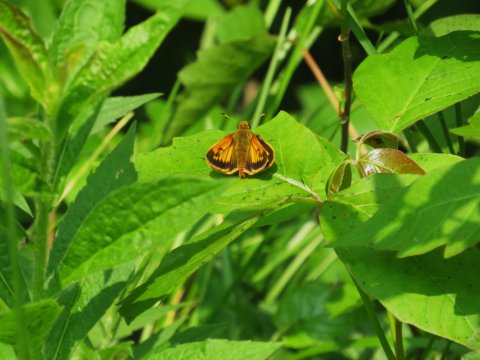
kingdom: Animalia
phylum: Arthropoda
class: Insecta
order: Lepidoptera
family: Hesperiidae
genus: Lon
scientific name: Lon hobomok
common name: Hobomok Skipper
